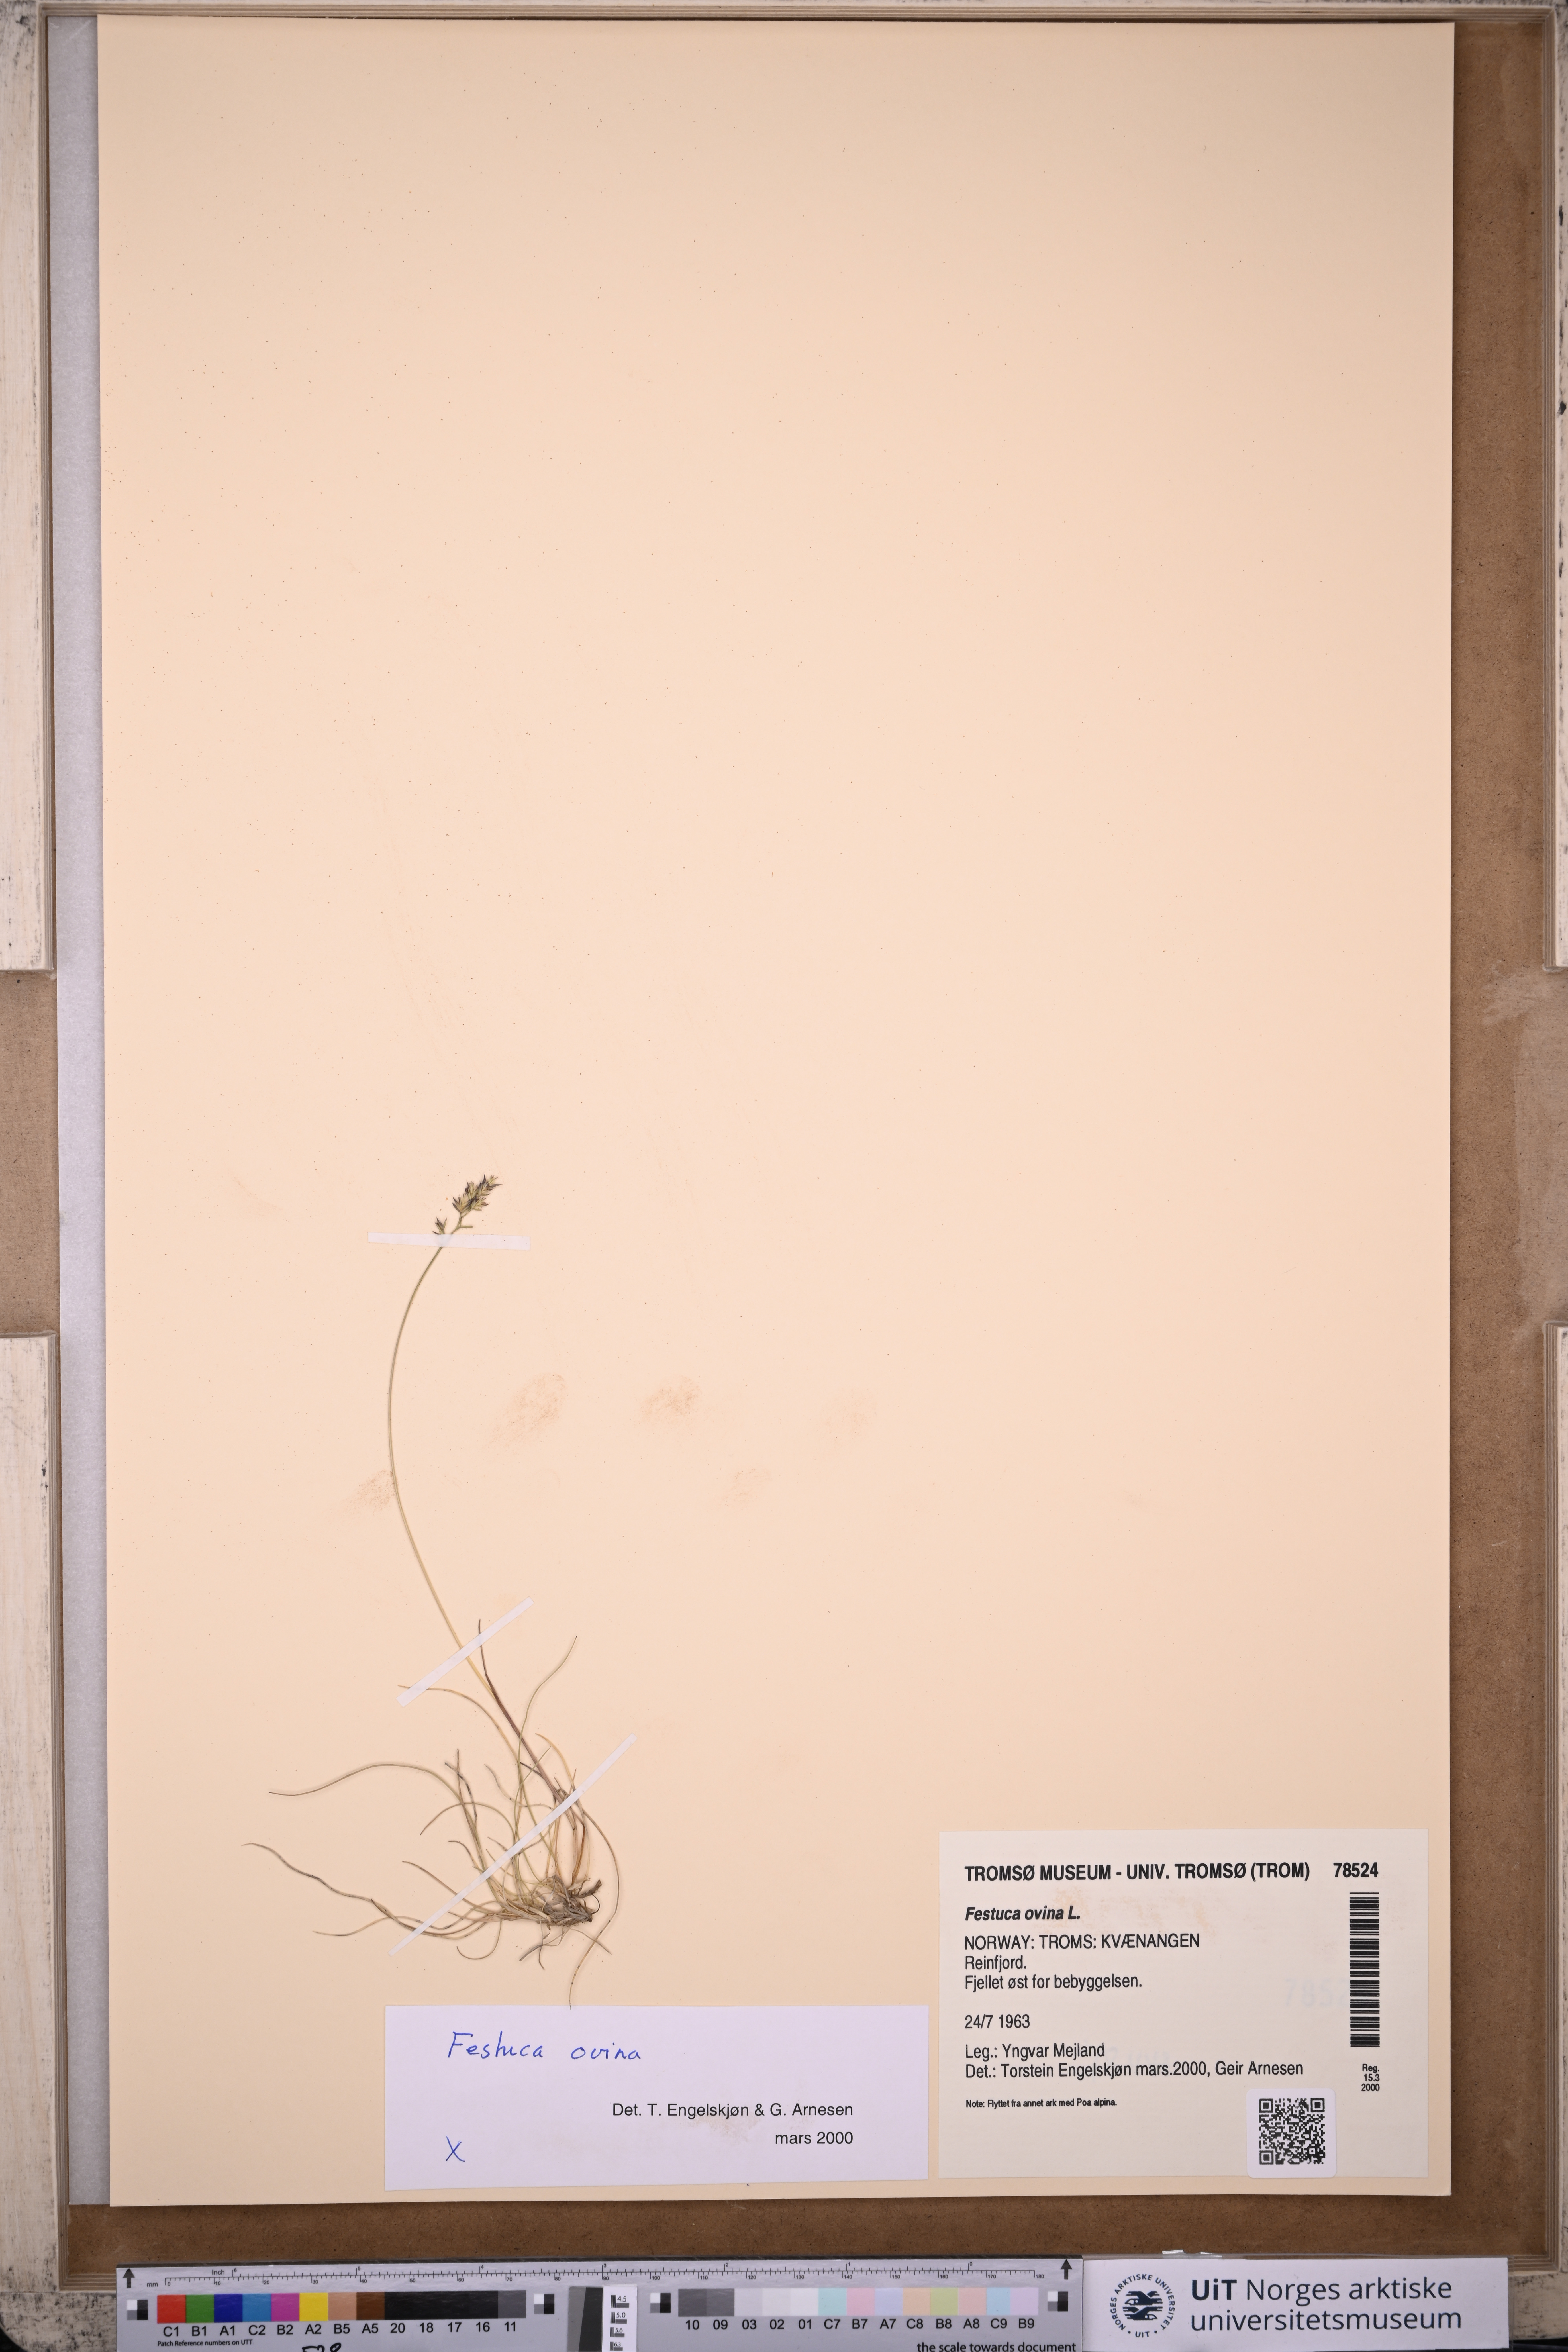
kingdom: Plantae
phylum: Tracheophyta
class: Liliopsida
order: Poales
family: Poaceae
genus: Festuca
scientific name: Festuca ovina
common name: Sheep fescue
